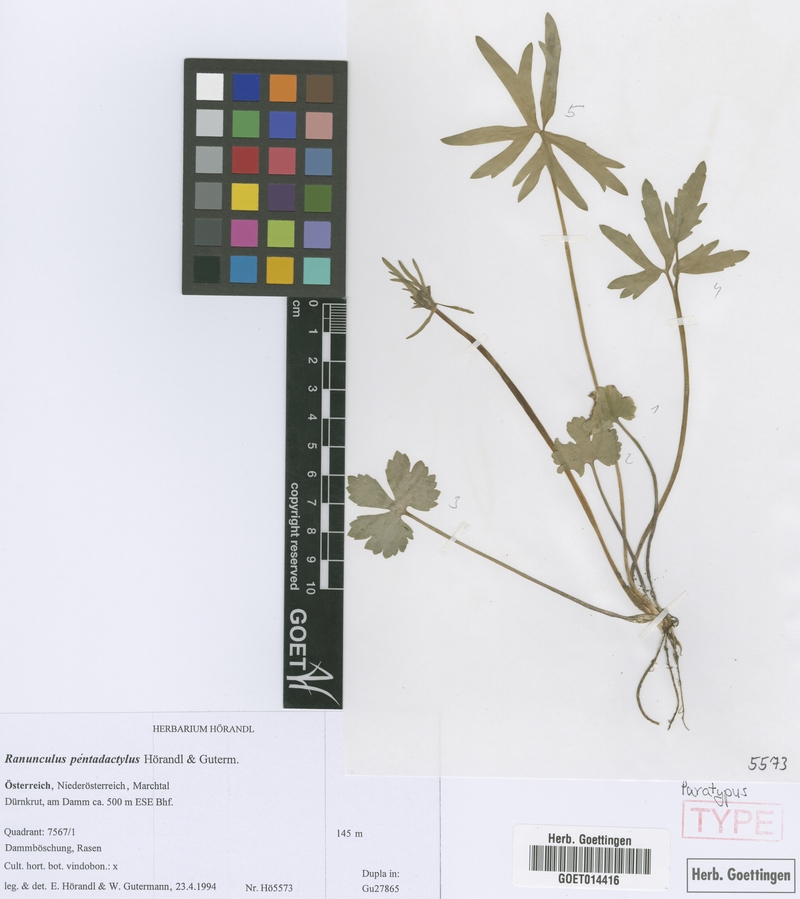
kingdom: Plantae
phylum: Tracheophyta
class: Magnoliopsida
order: Ranunculales
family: Ranunculaceae
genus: Ranunculus
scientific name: Ranunculus pentadactylus
